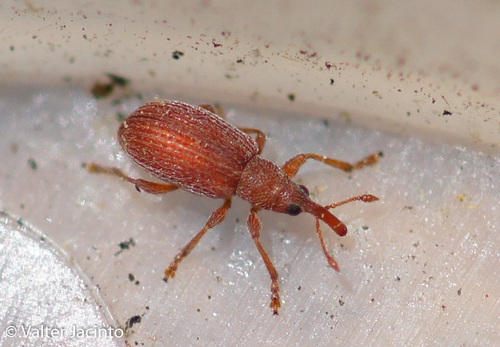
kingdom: Animalia
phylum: Arthropoda
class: Insecta
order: Coleoptera
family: Apionidae
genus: Apion
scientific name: Apion rubens
